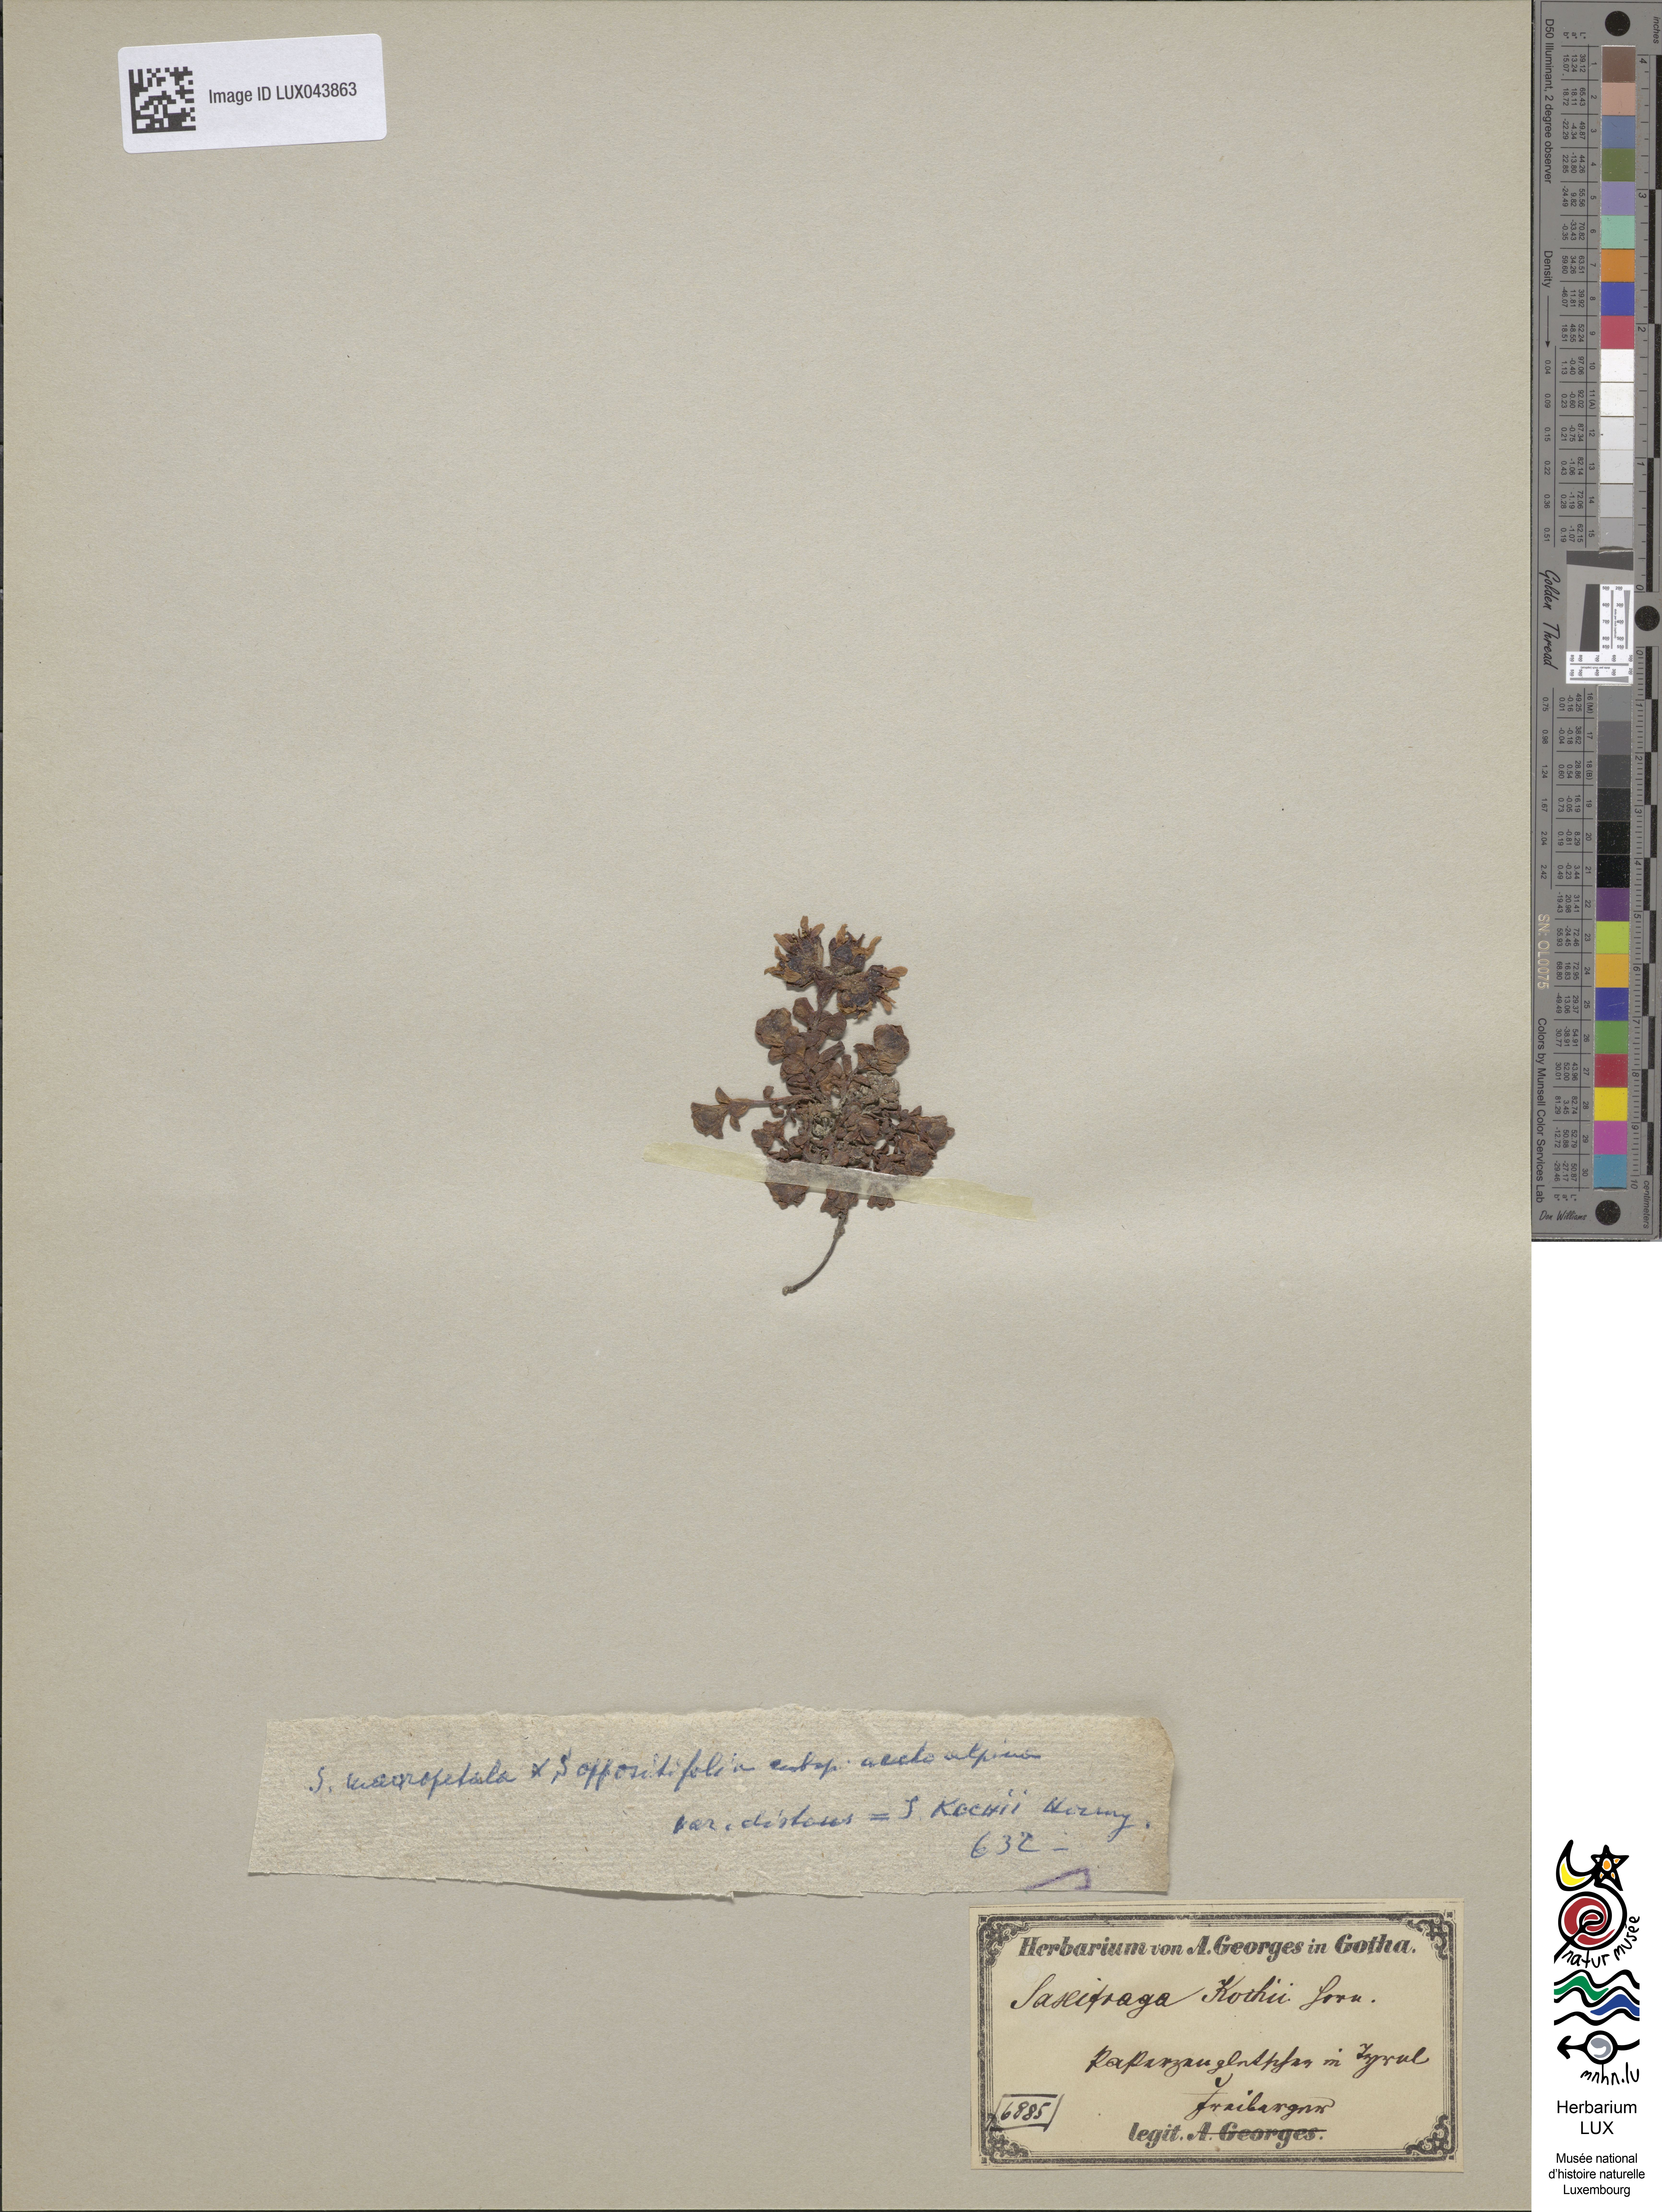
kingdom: Plantae
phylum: Tracheophyta
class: Magnoliopsida
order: Saxifragales
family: Saxifragaceae
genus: Saxifraga
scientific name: Saxifraga kochii
